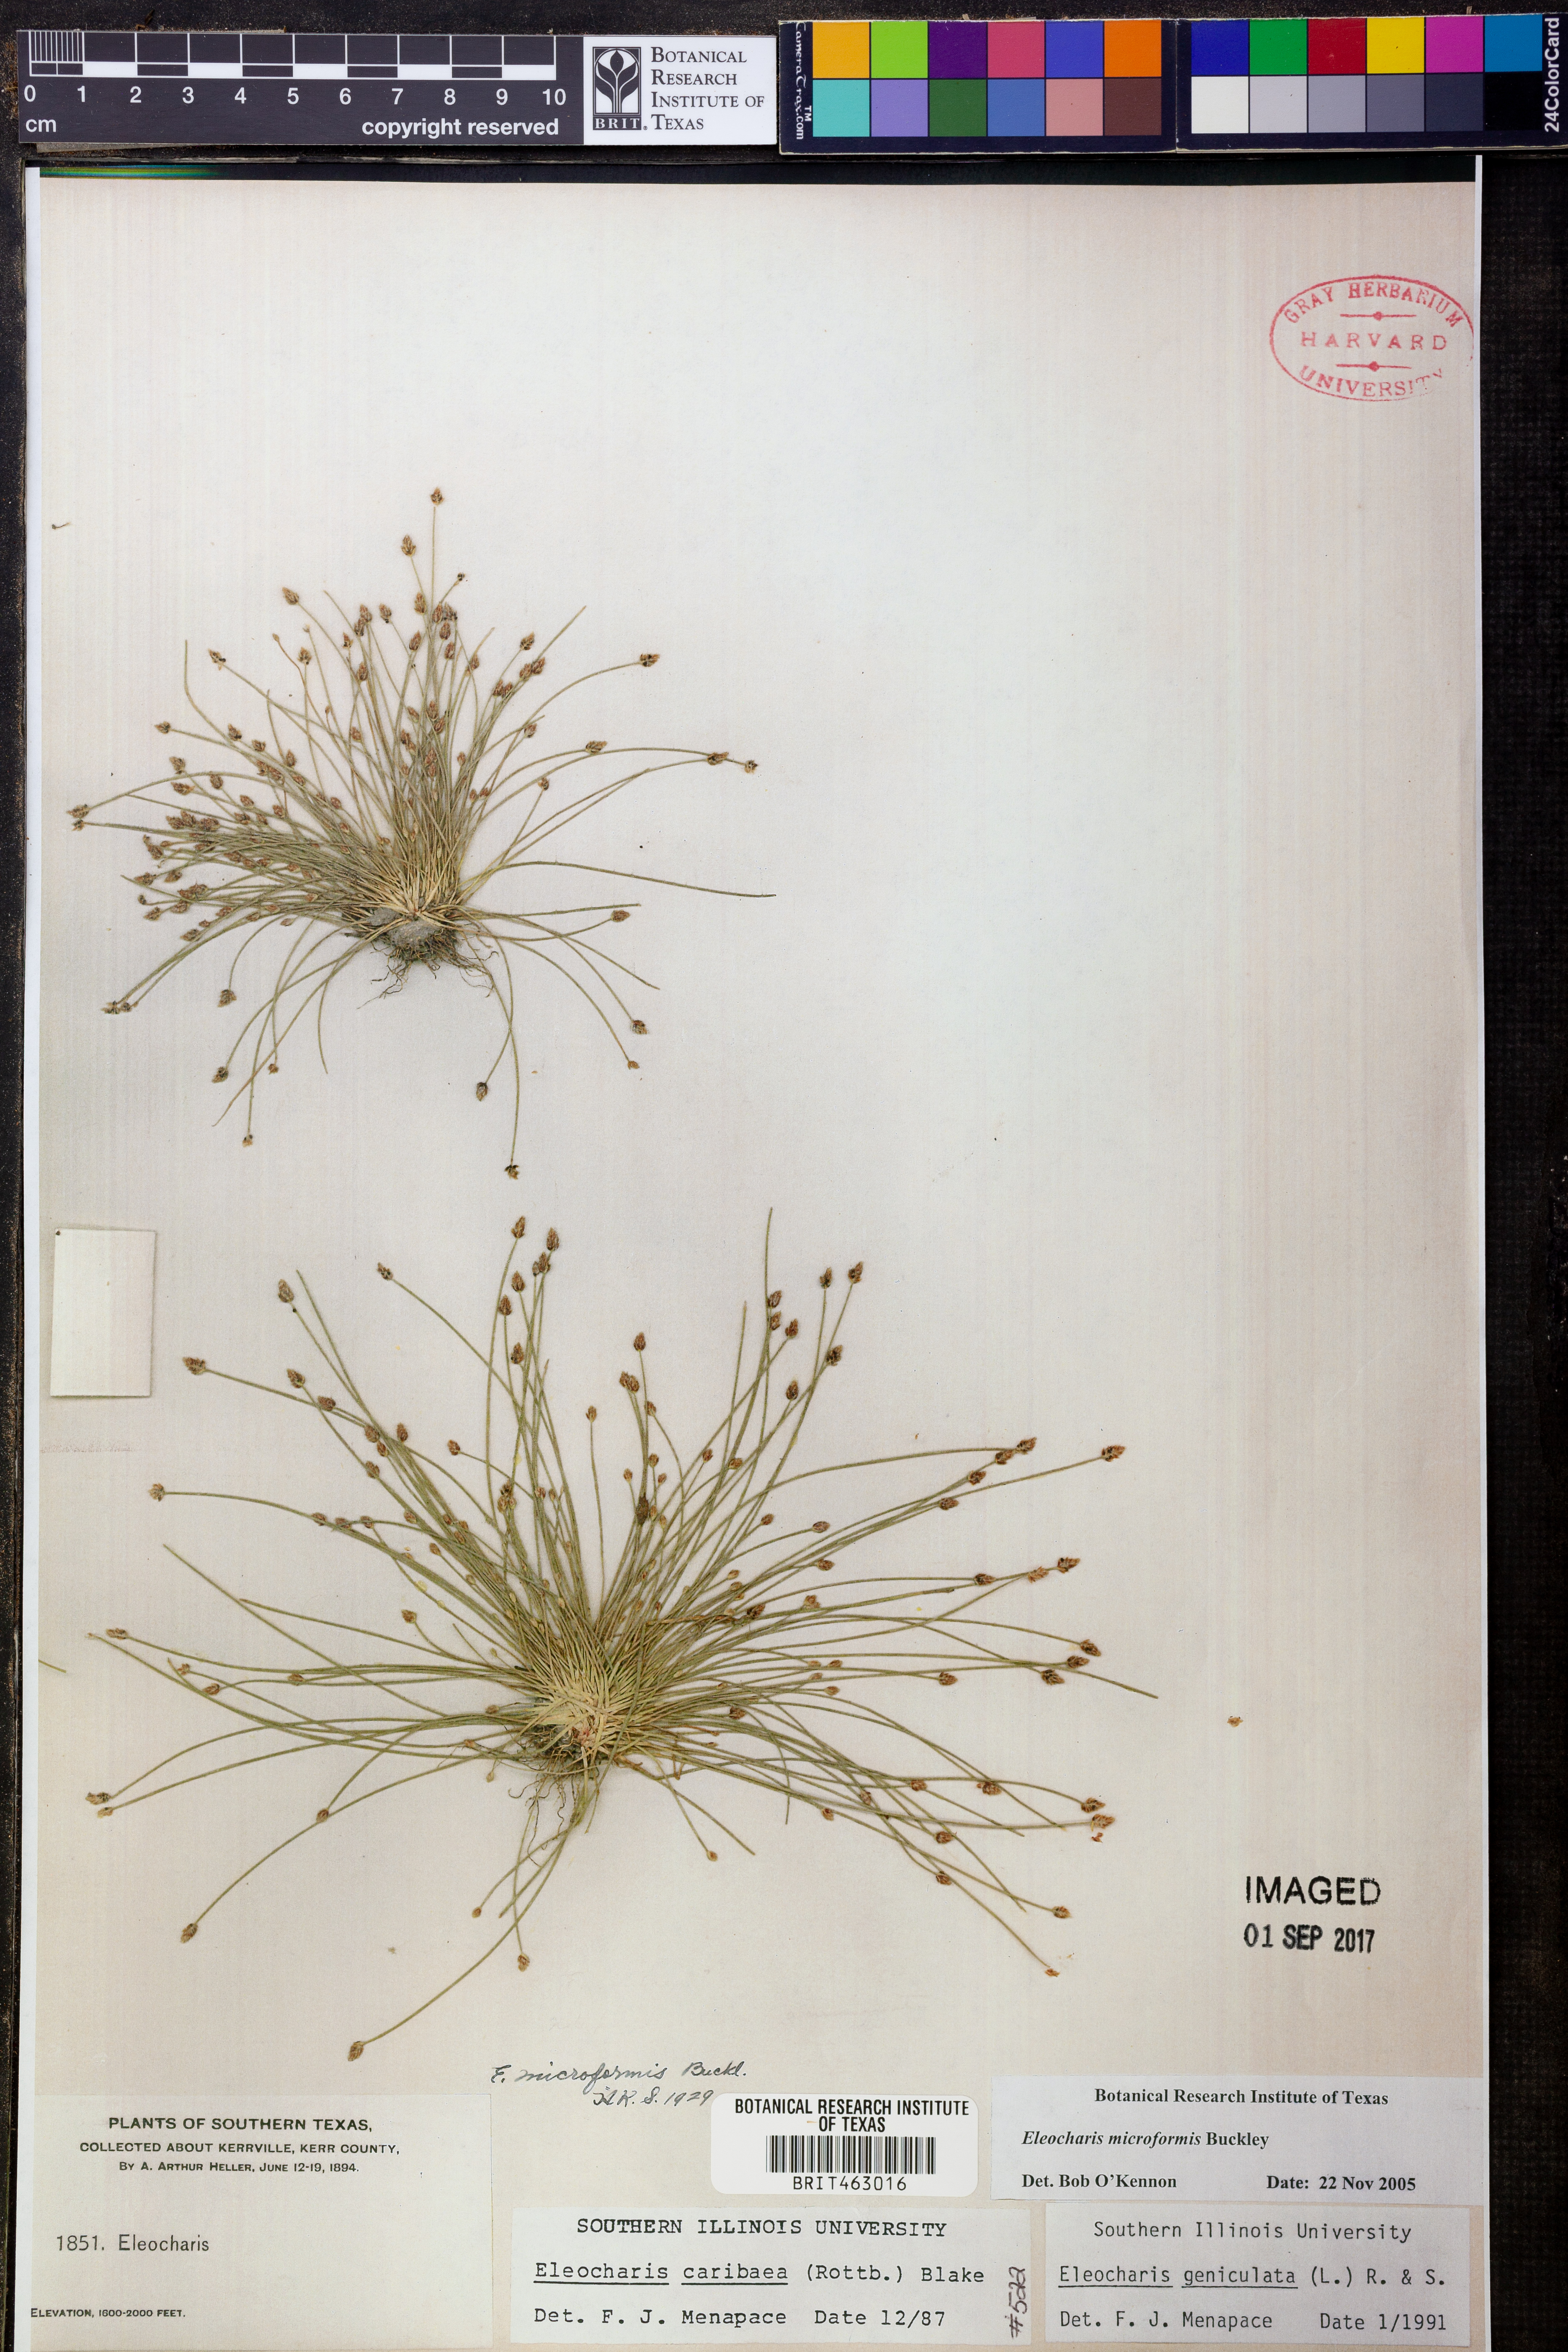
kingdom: Plantae
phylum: Tracheophyta
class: Liliopsida
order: Poales
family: Cyperaceae
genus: Eleocharis
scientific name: Eleocharis microformis
